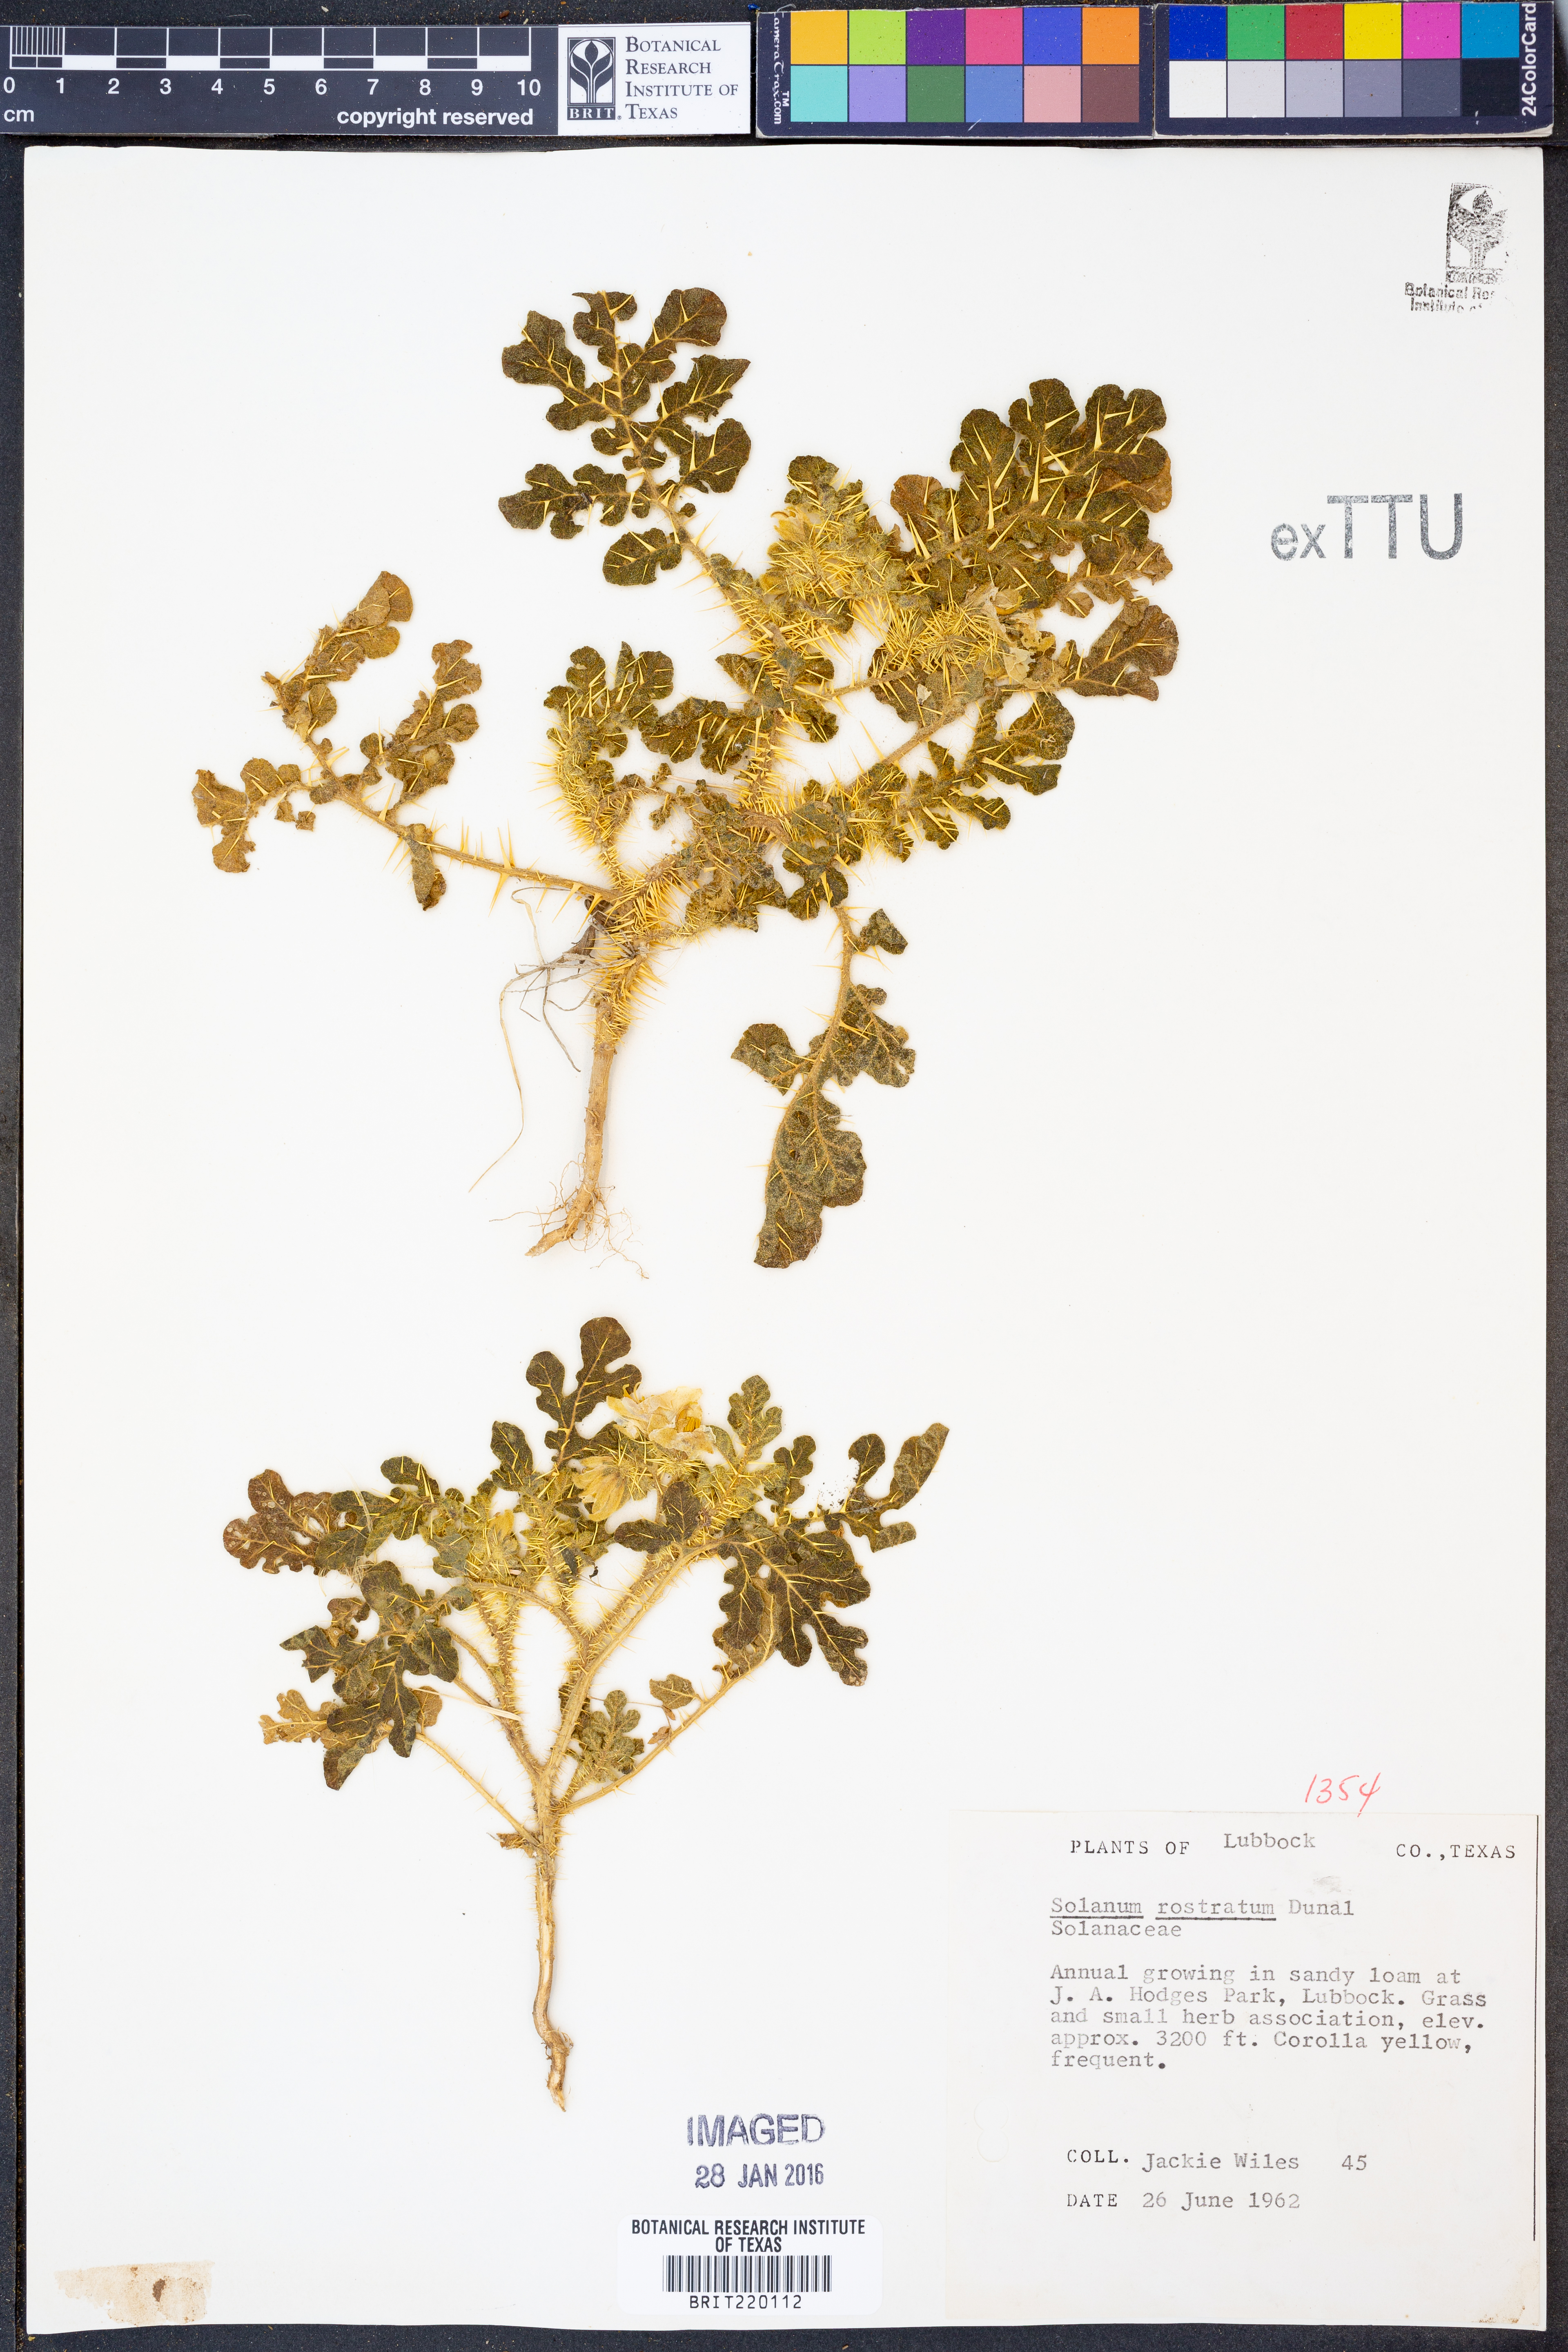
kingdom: Plantae
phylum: Tracheophyta
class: Magnoliopsida
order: Solanales
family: Solanaceae
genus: Solanum
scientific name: Solanum angustifolium
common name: Buffalobur nightshade
